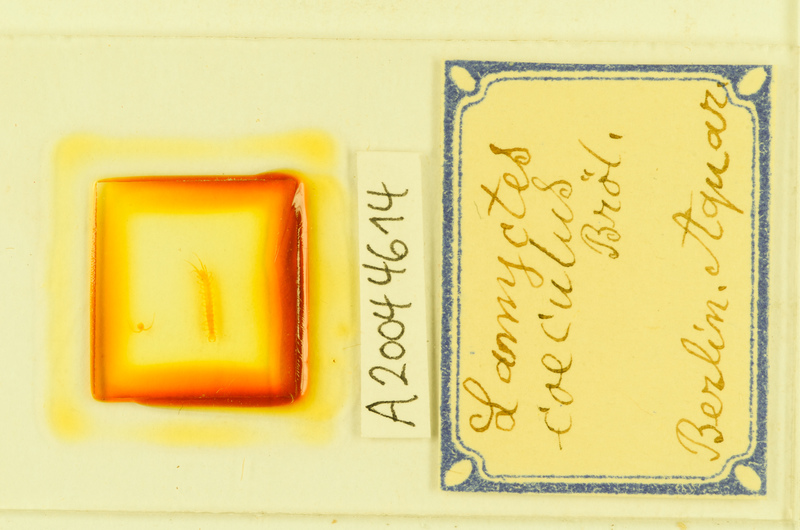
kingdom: Animalia
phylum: Arthropoda
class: Chilopoda
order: Lithobiomorpha
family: Henicopidae
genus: Lamyctes
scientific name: Lamyctes coeculus
